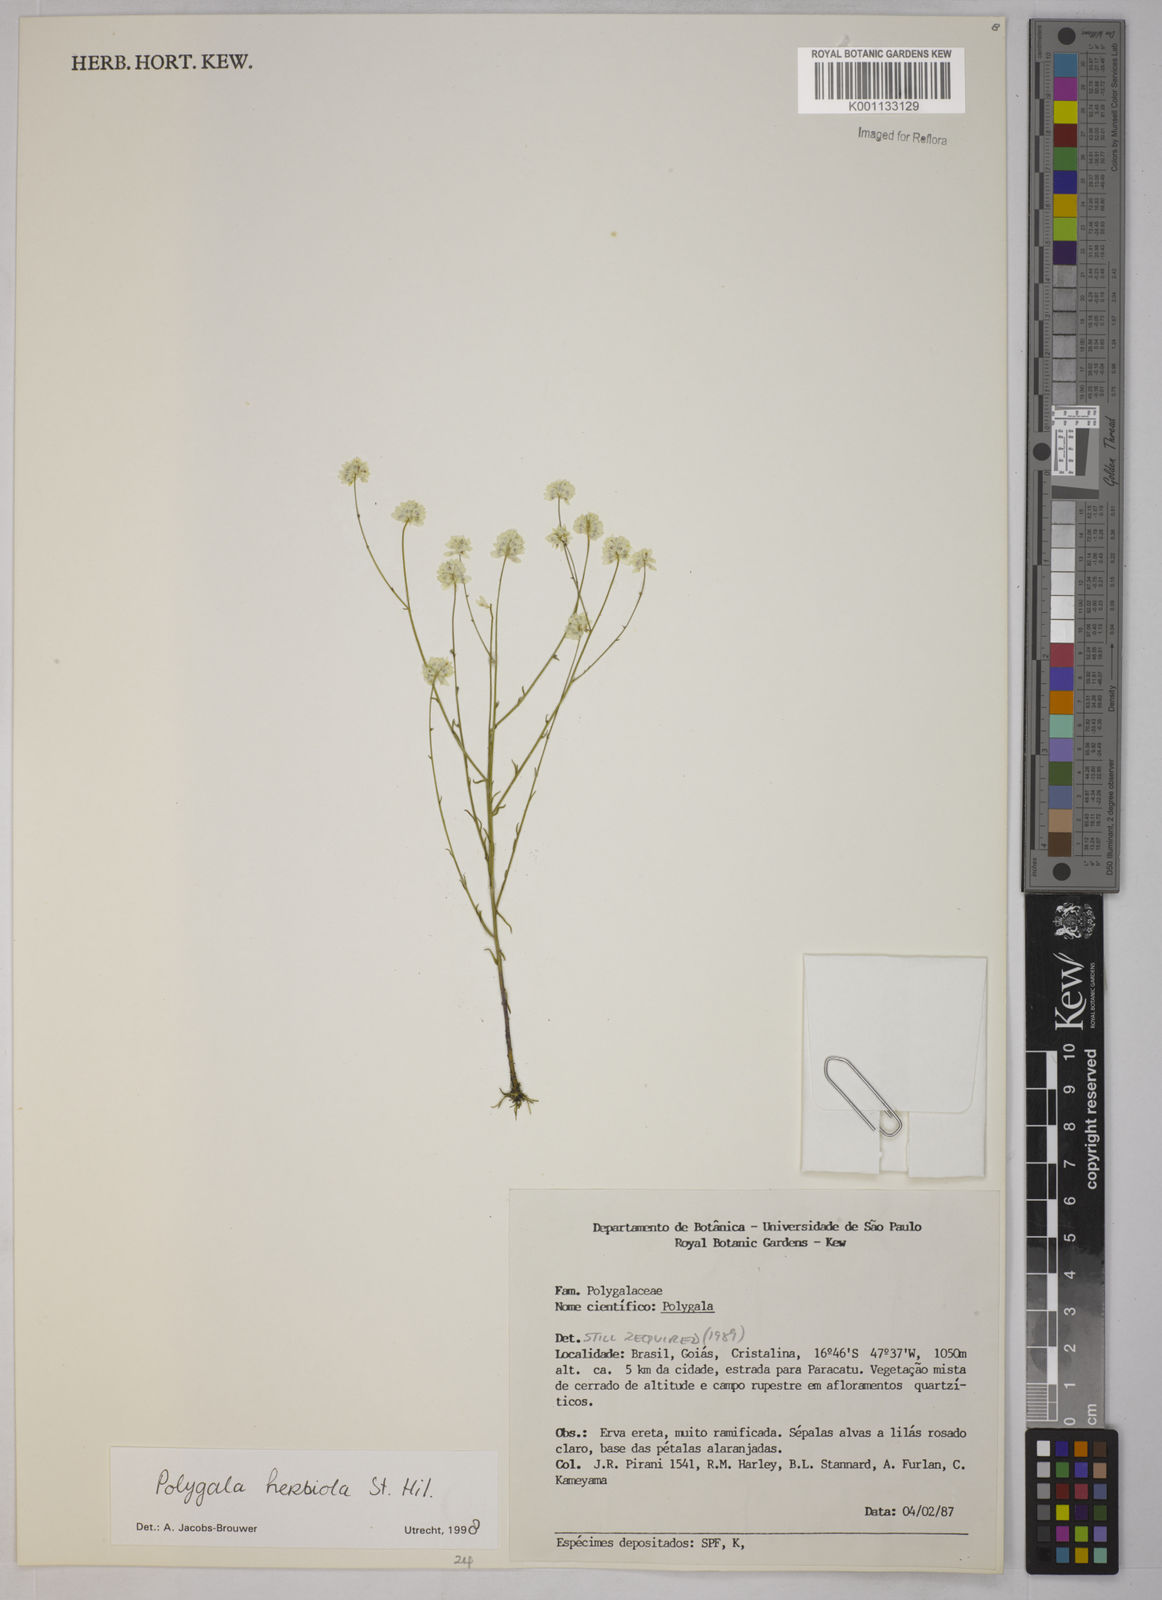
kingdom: Plantae
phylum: Tracheophyta
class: Magnoliopsida
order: Fabales
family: Polygalaceae
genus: Polygala
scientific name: Polygala herbiola
